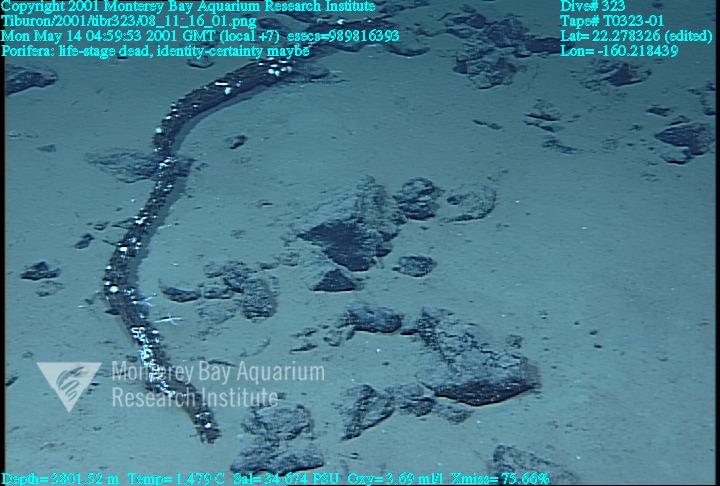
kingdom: Animalia
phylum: Porifera
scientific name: Porifera
